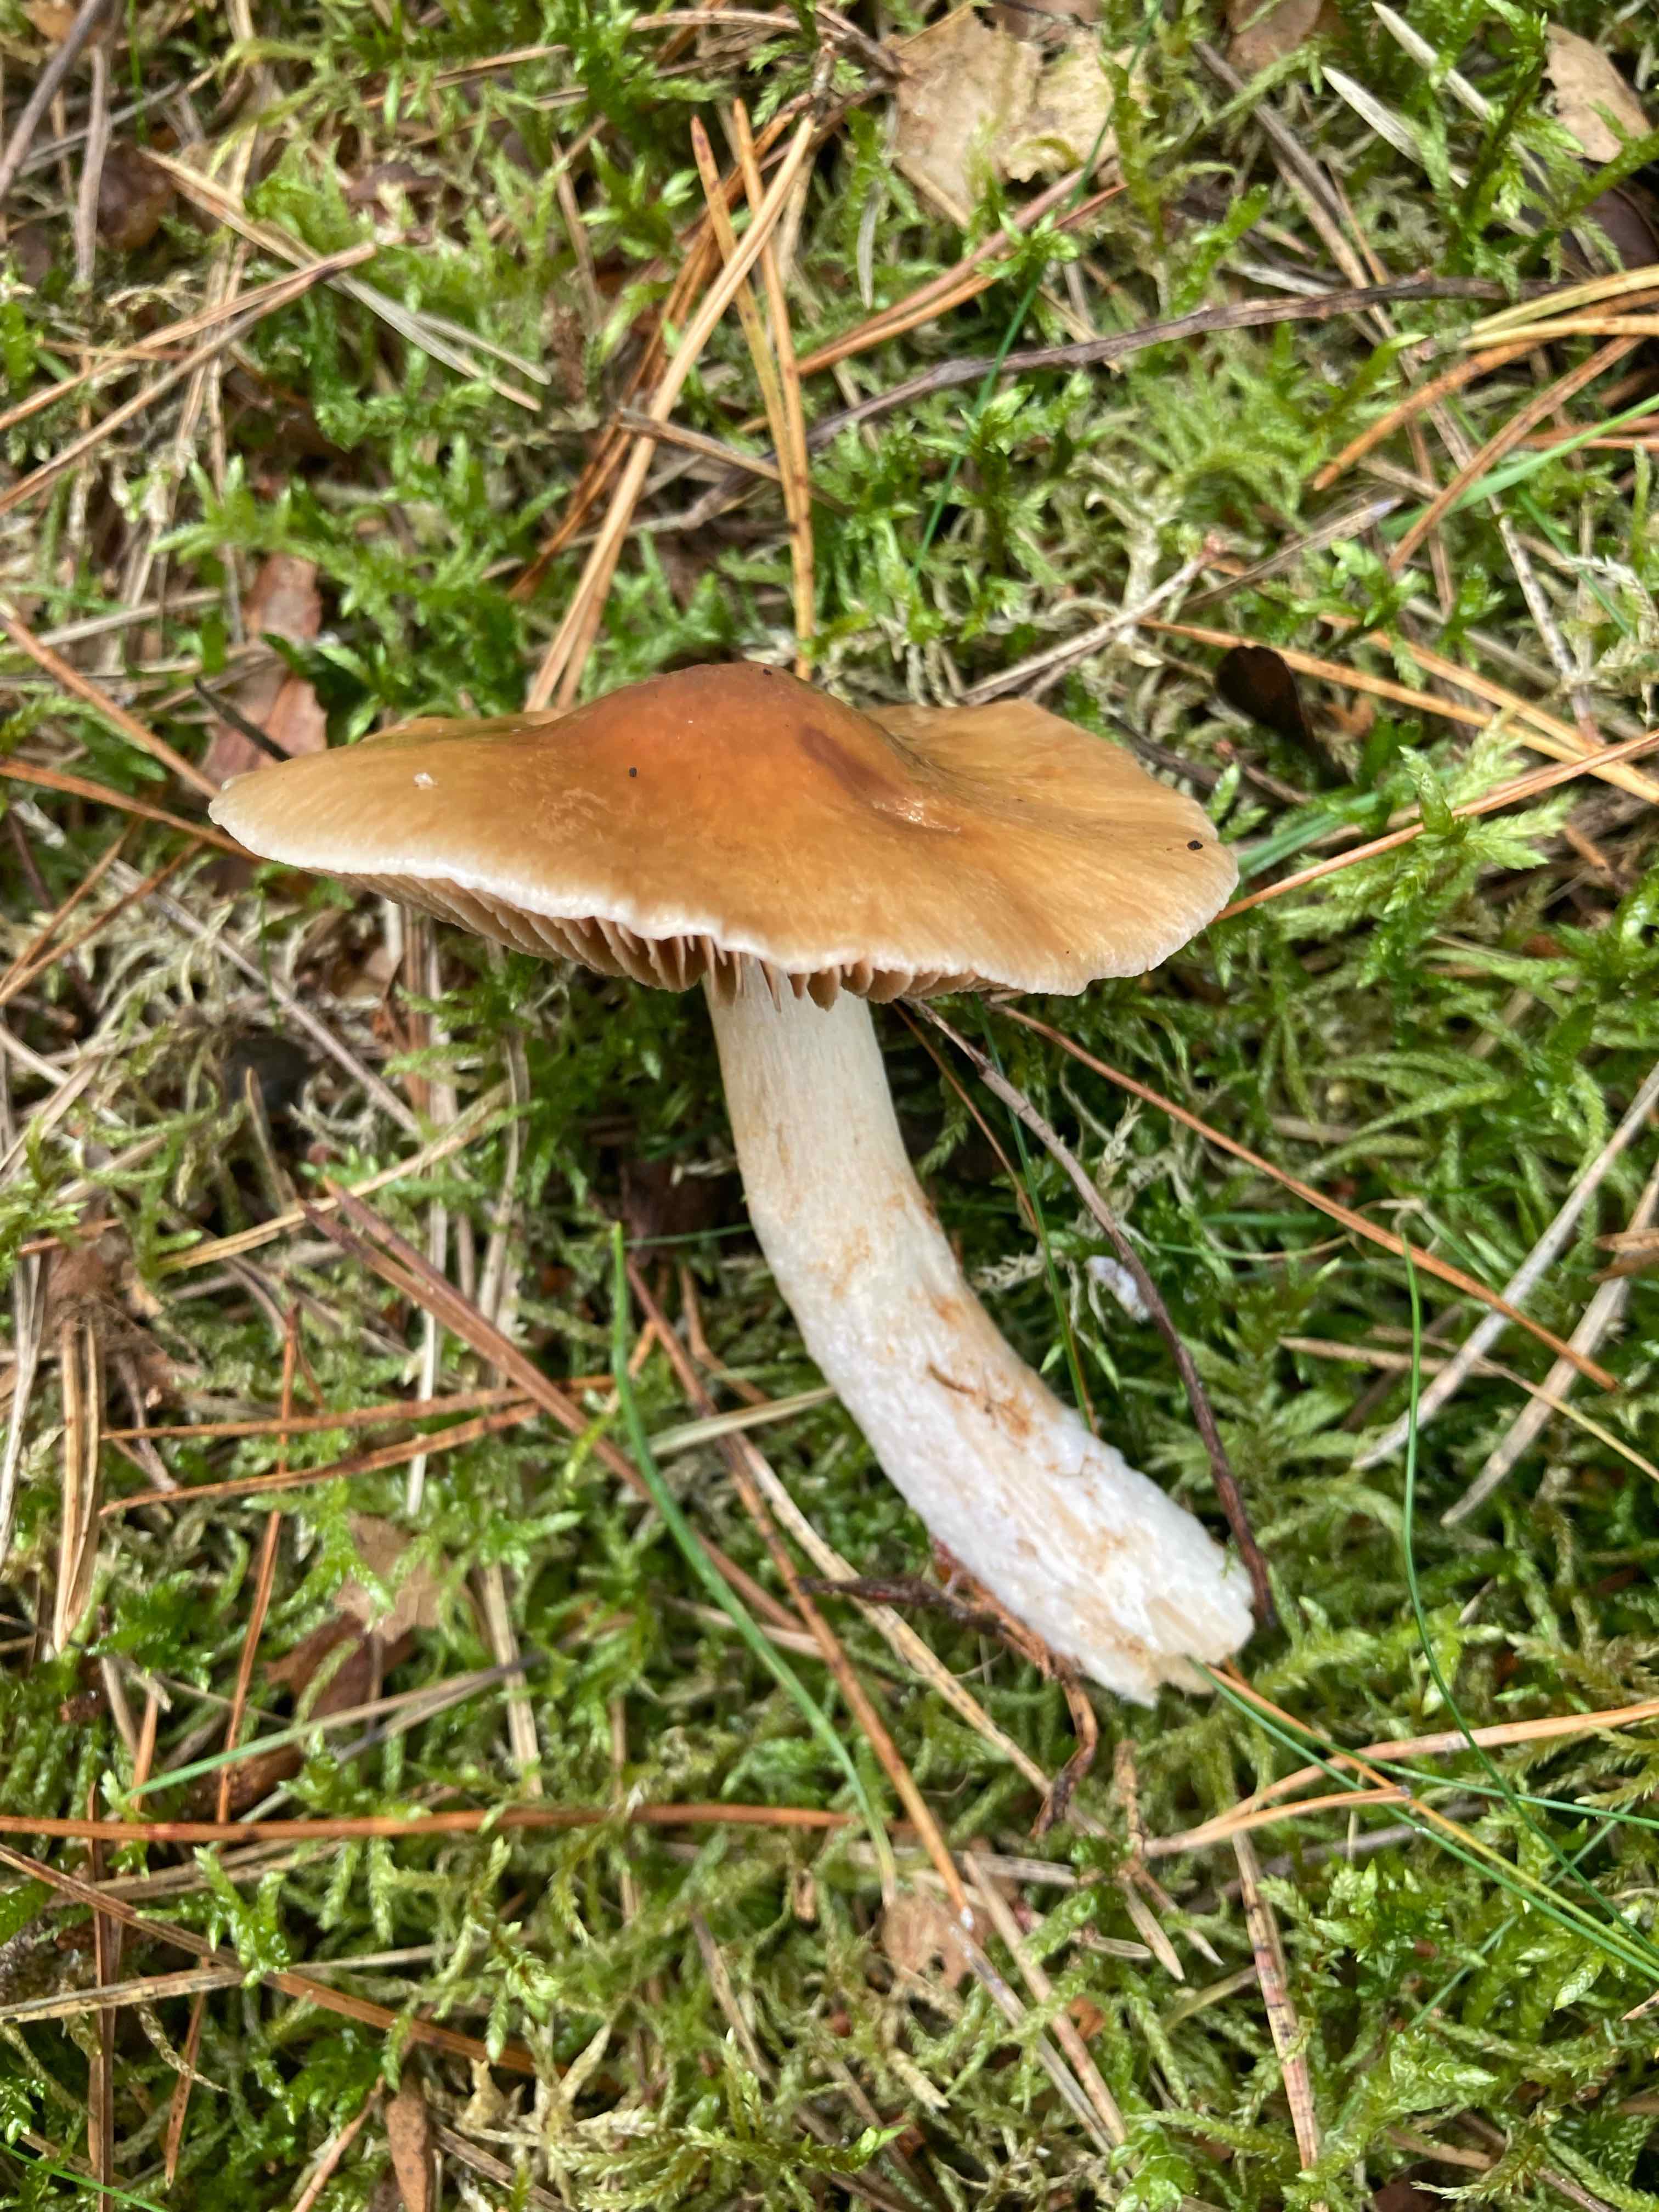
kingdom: Fungi
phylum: Basidiomycota
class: Agaricomycetes
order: Agaricales
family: Cortinariaceae
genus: Cortinarius
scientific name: Cortinarius
